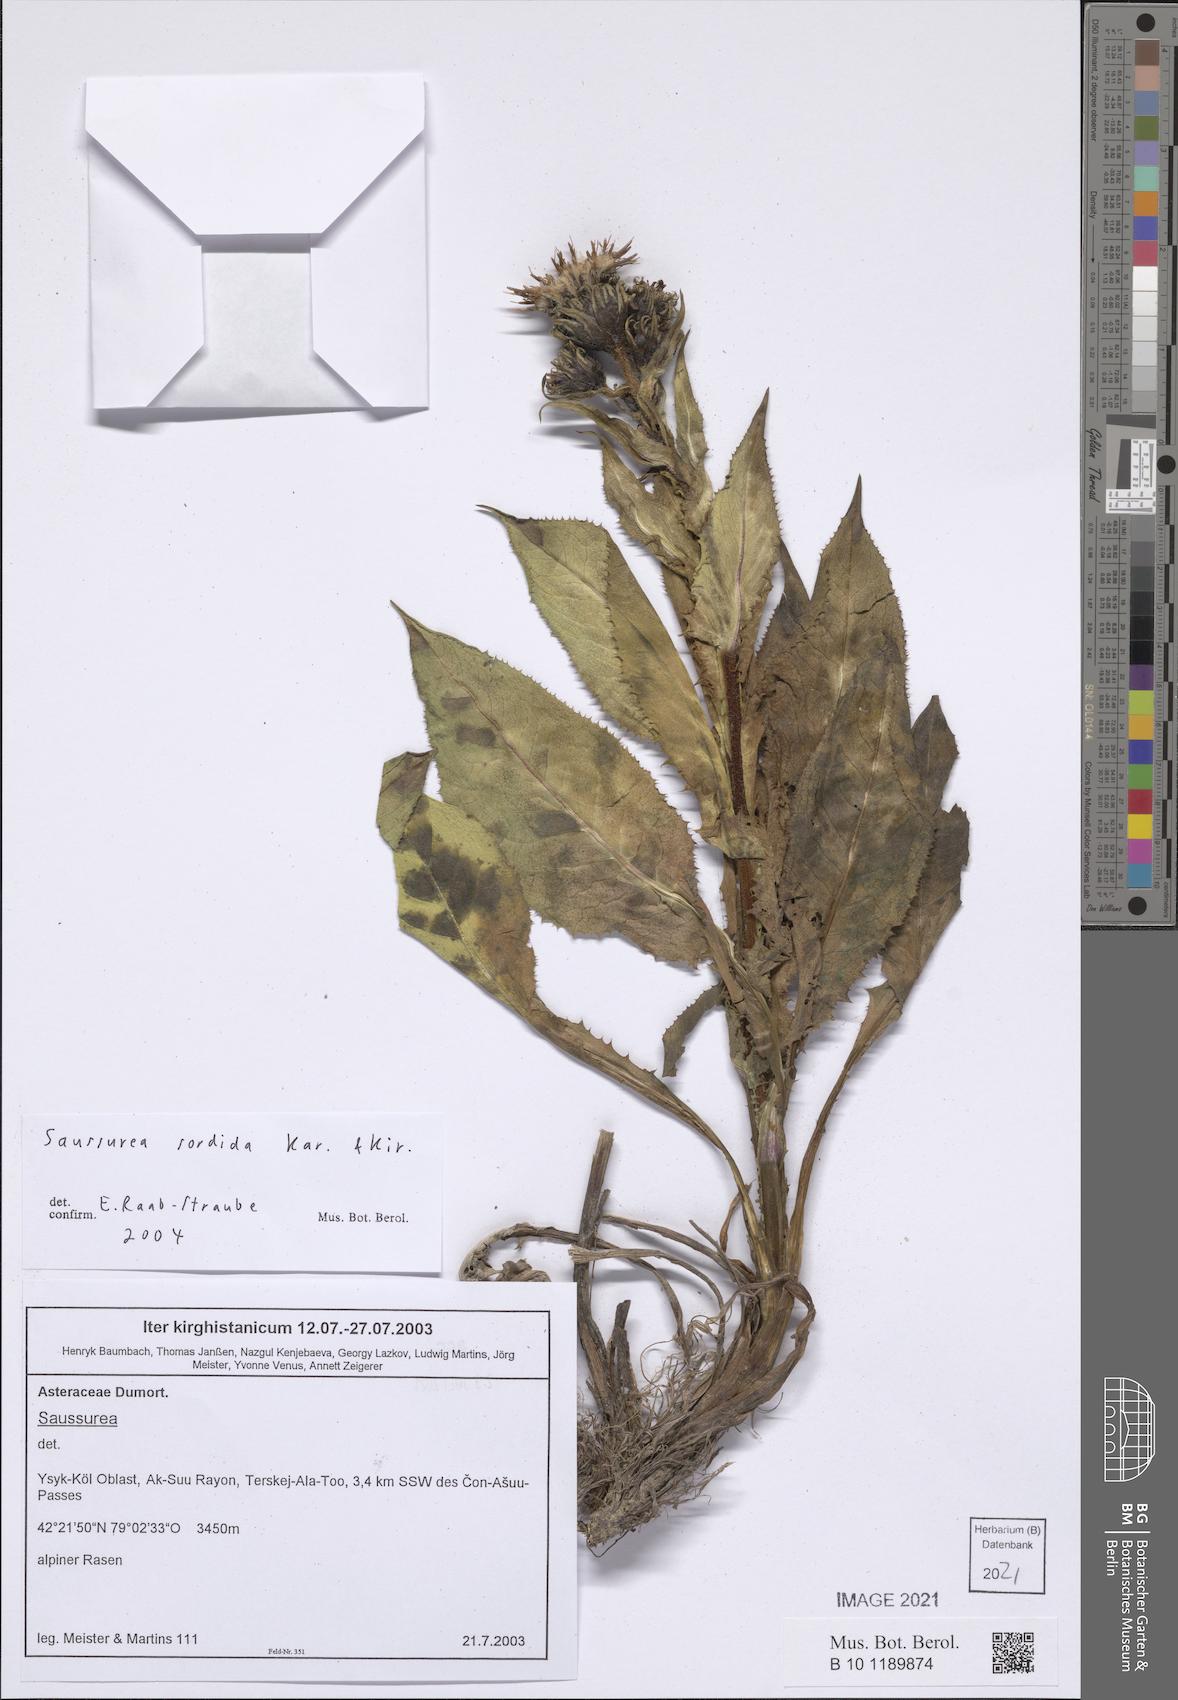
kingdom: Plantae
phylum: Tracheophyta
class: Magnoliopsida
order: Asterales
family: Asteraceae
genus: Saussurea
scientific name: Saussurea sordida
